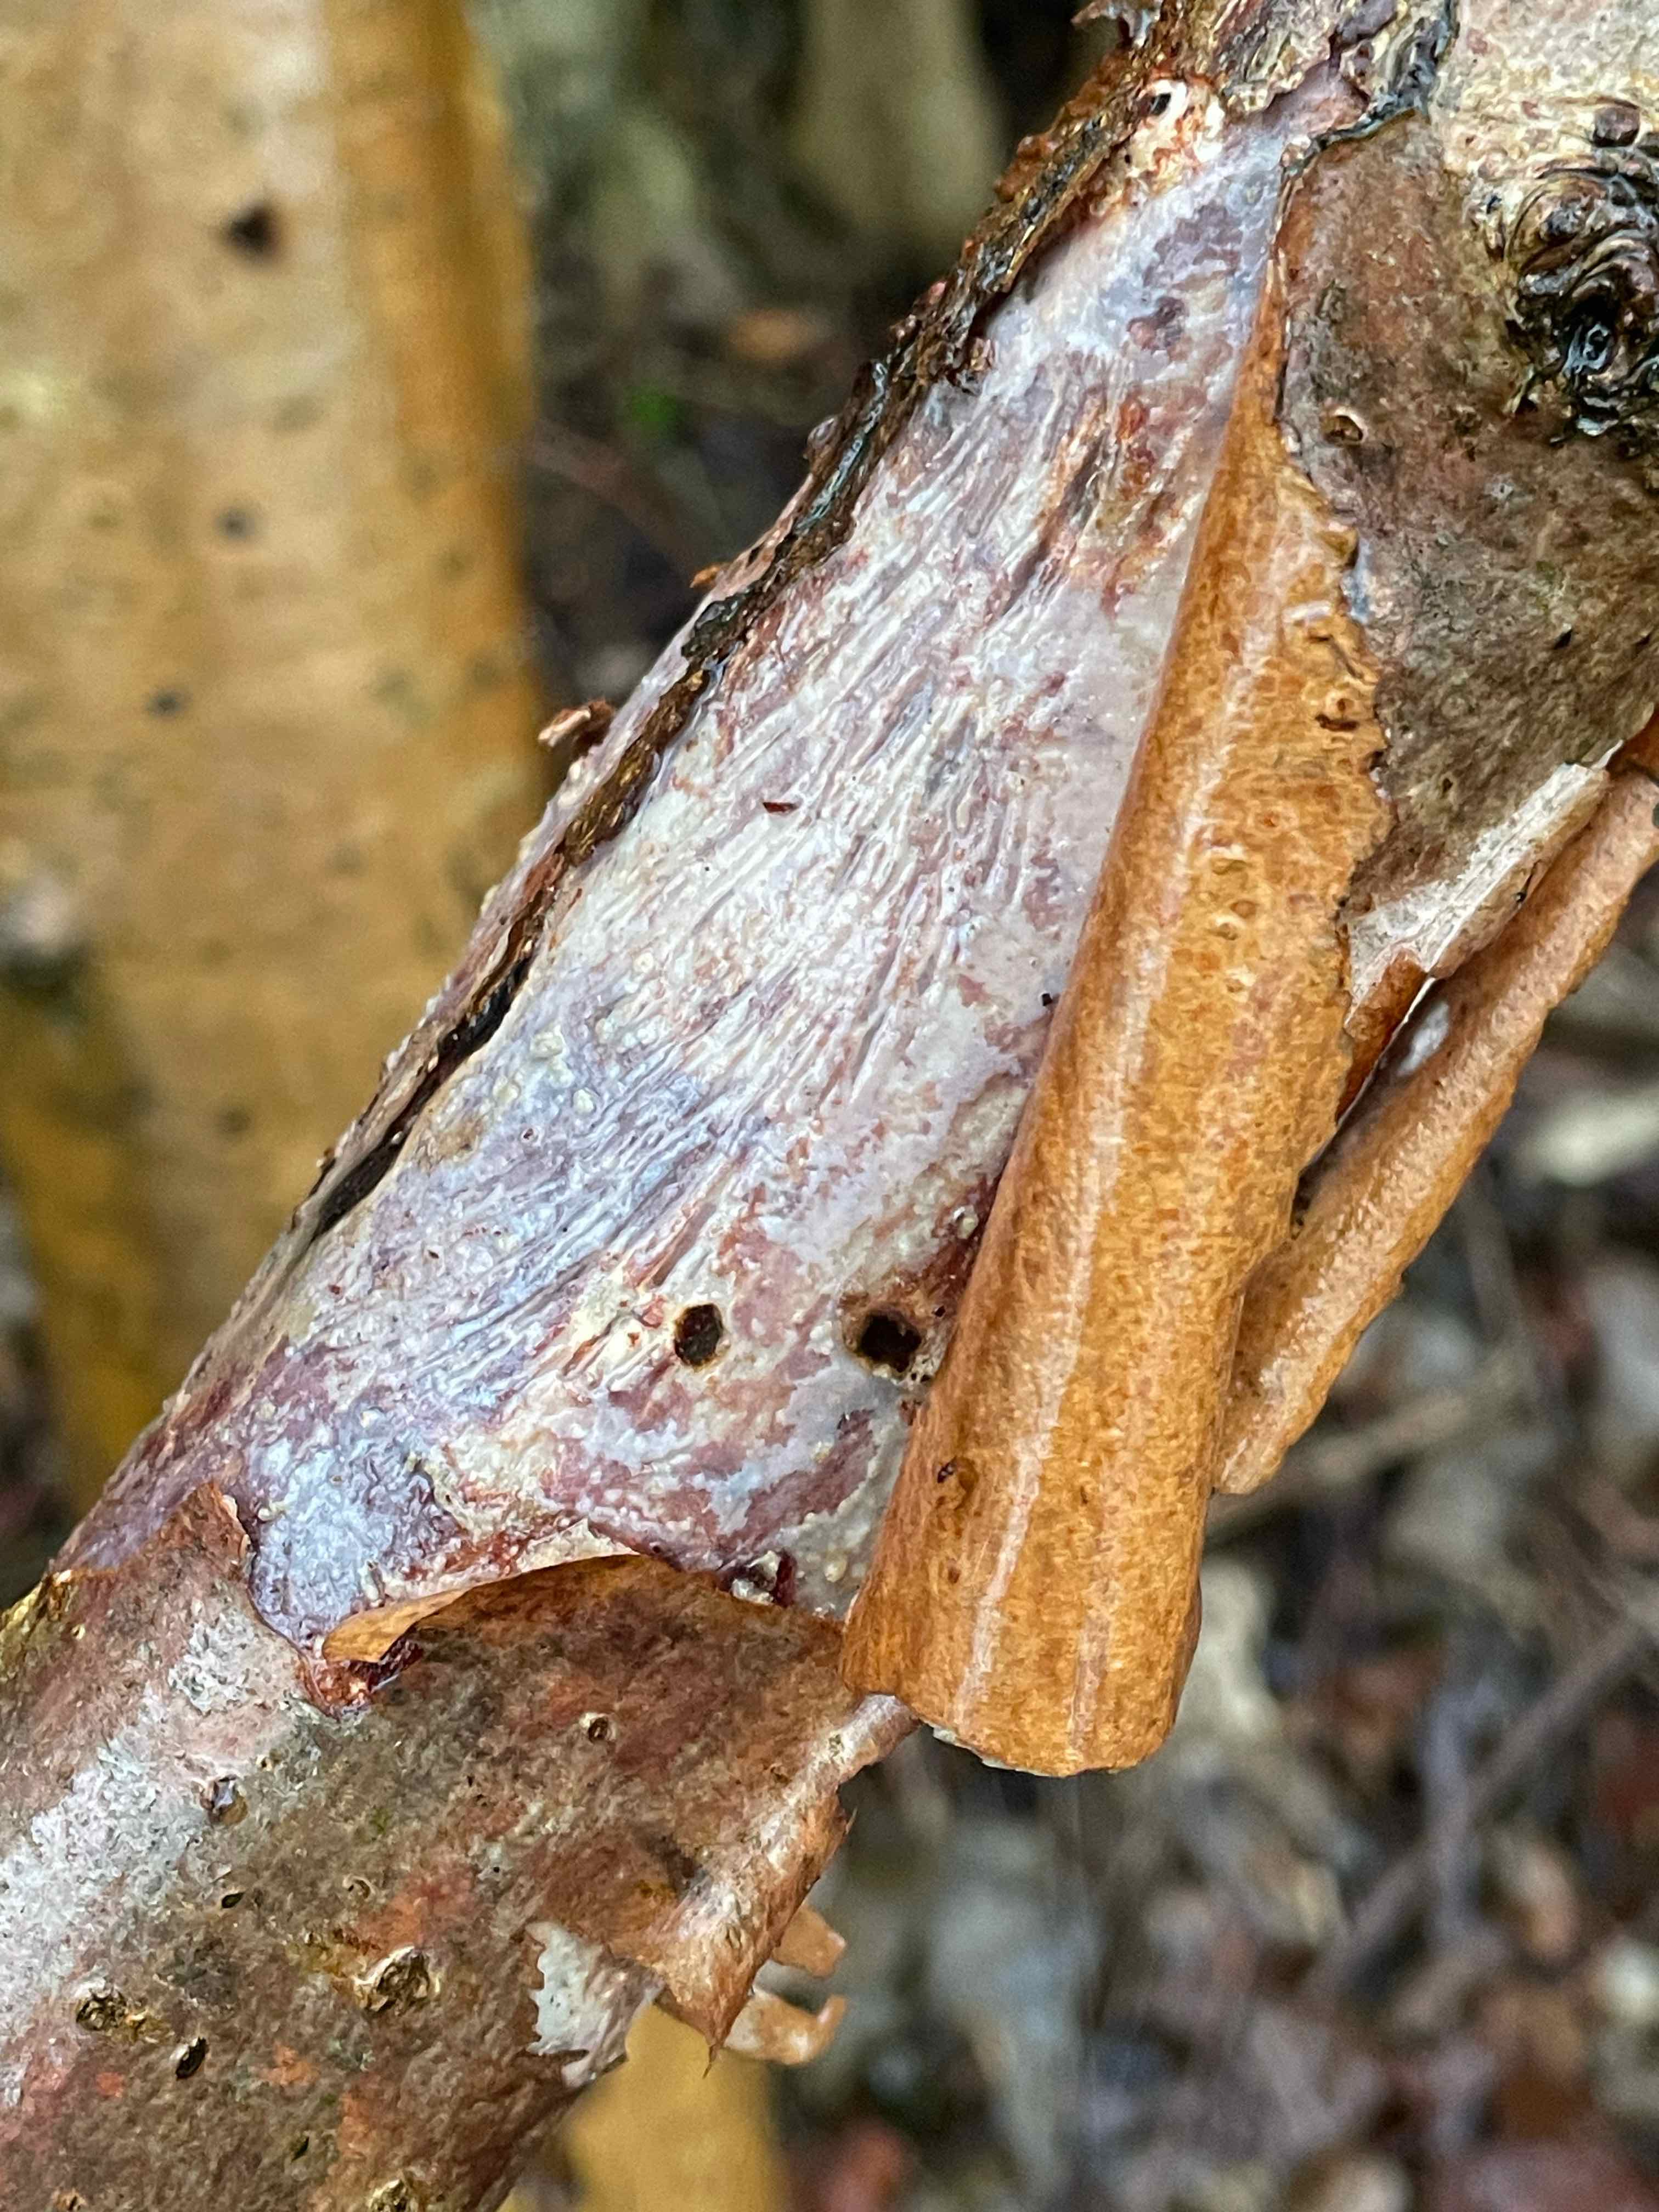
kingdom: Fungi
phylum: Basidiomycota
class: Agaricomycetes
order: Corticiales
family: Vuilleminiaceae
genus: Vuilleminia
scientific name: Vuilleminia coryli
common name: hassel-barksprænger
